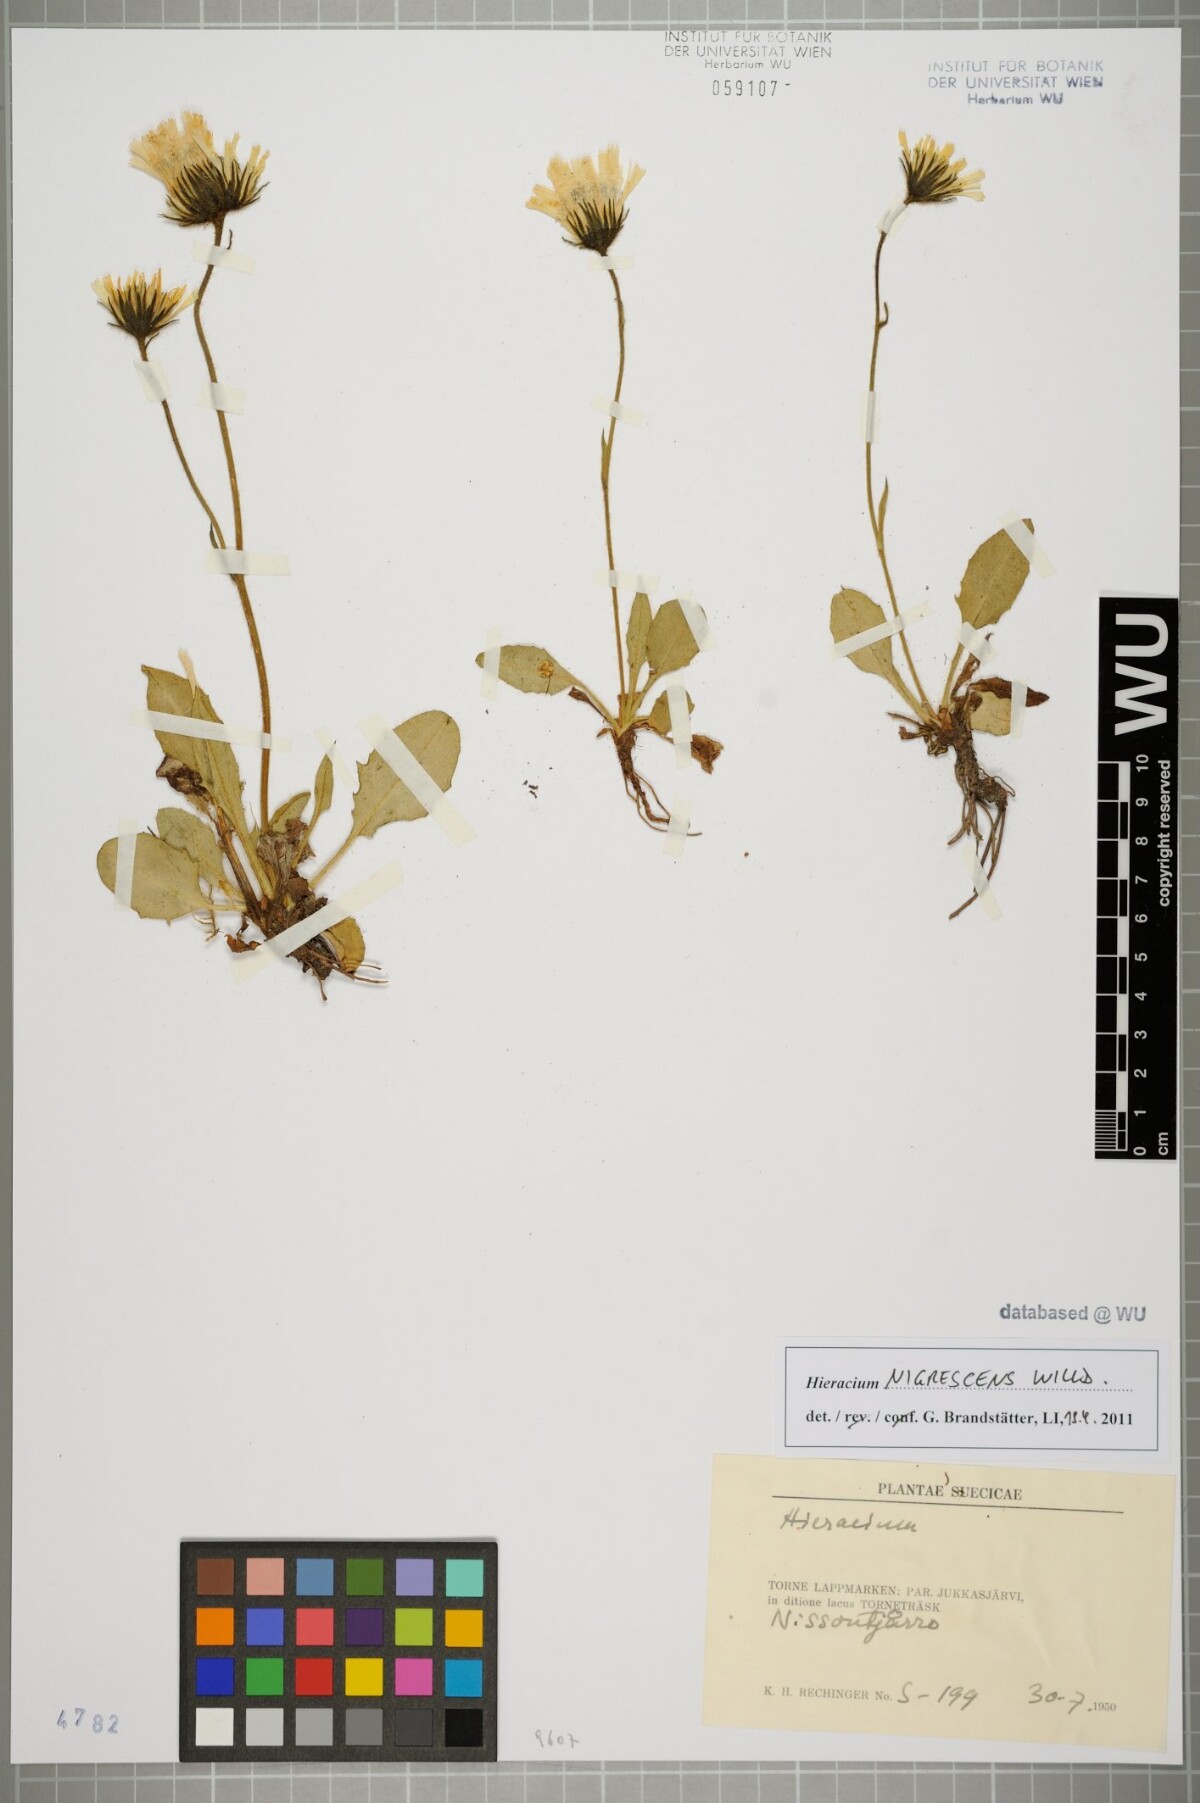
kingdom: Plantae
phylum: Tracheophyta
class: Magnoliopsida
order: Asterales
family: Asteraceae
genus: Hieracium
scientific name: Hieracium nigrescens
